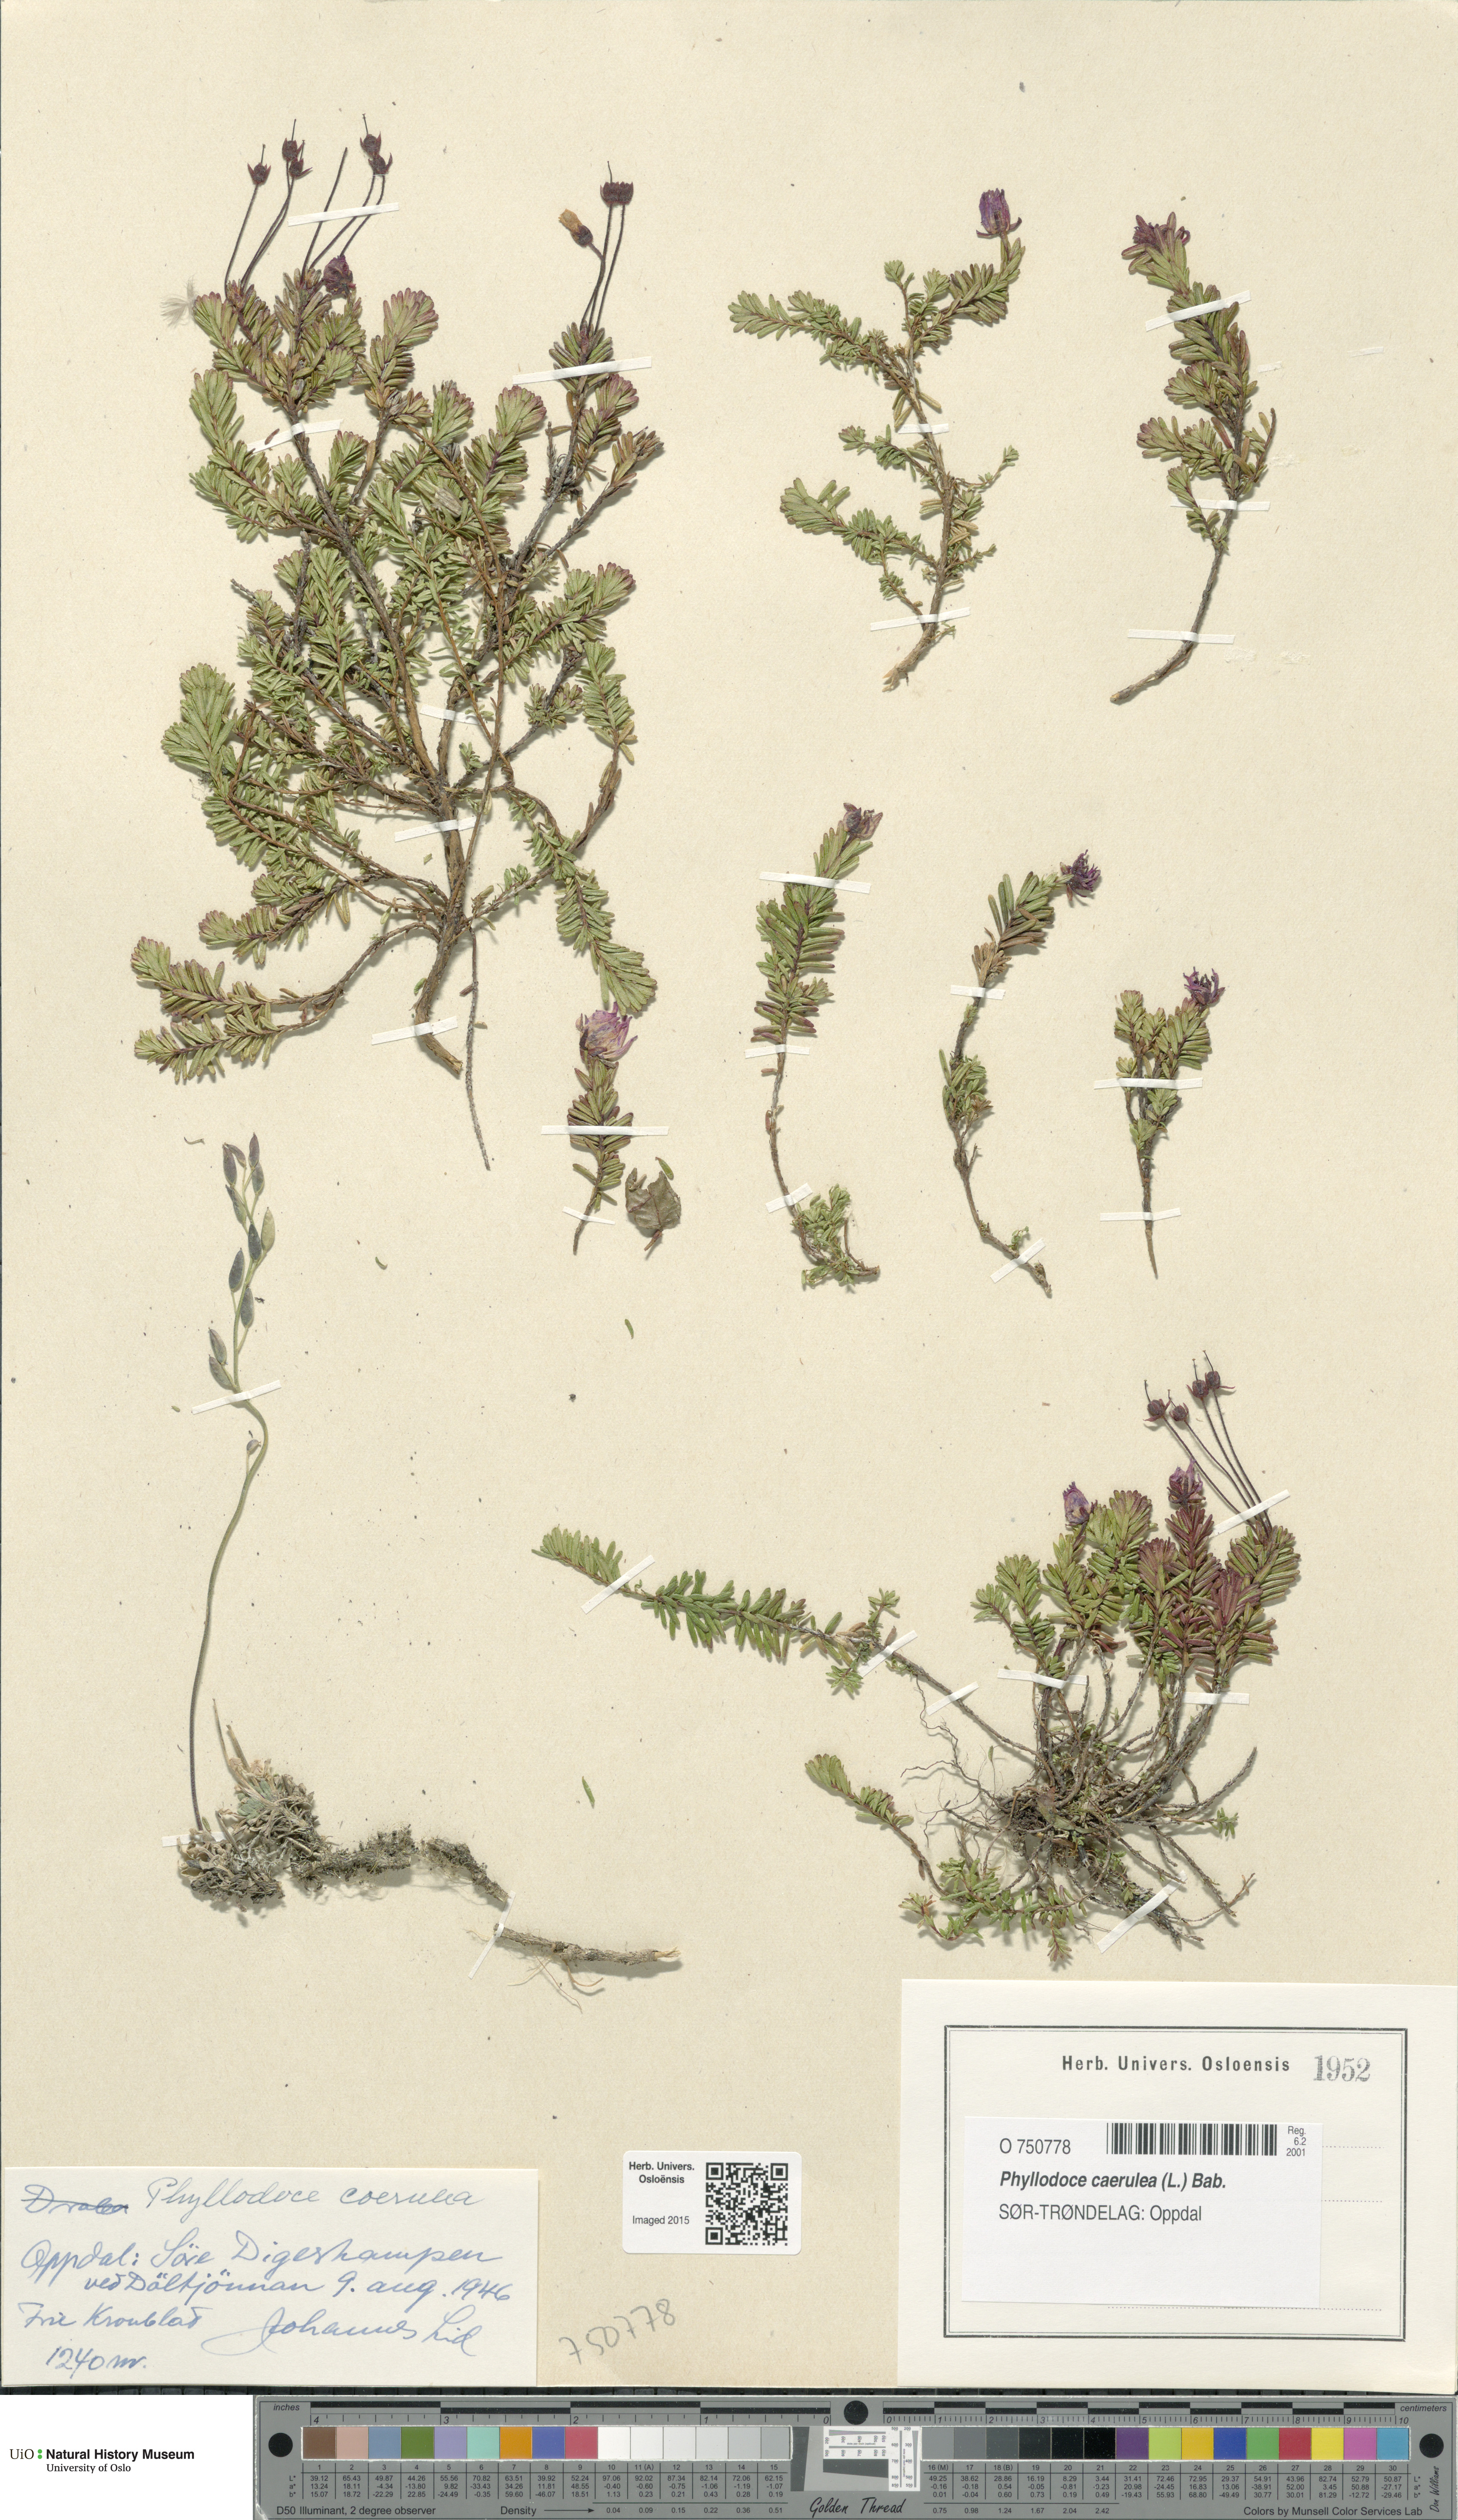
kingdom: Plantae
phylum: Tracheophyta
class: Magnoliopsida
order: Ericales
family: Ericaceae
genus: Phyllodoce
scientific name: Phyllodoce caerulea
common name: Blue heath
